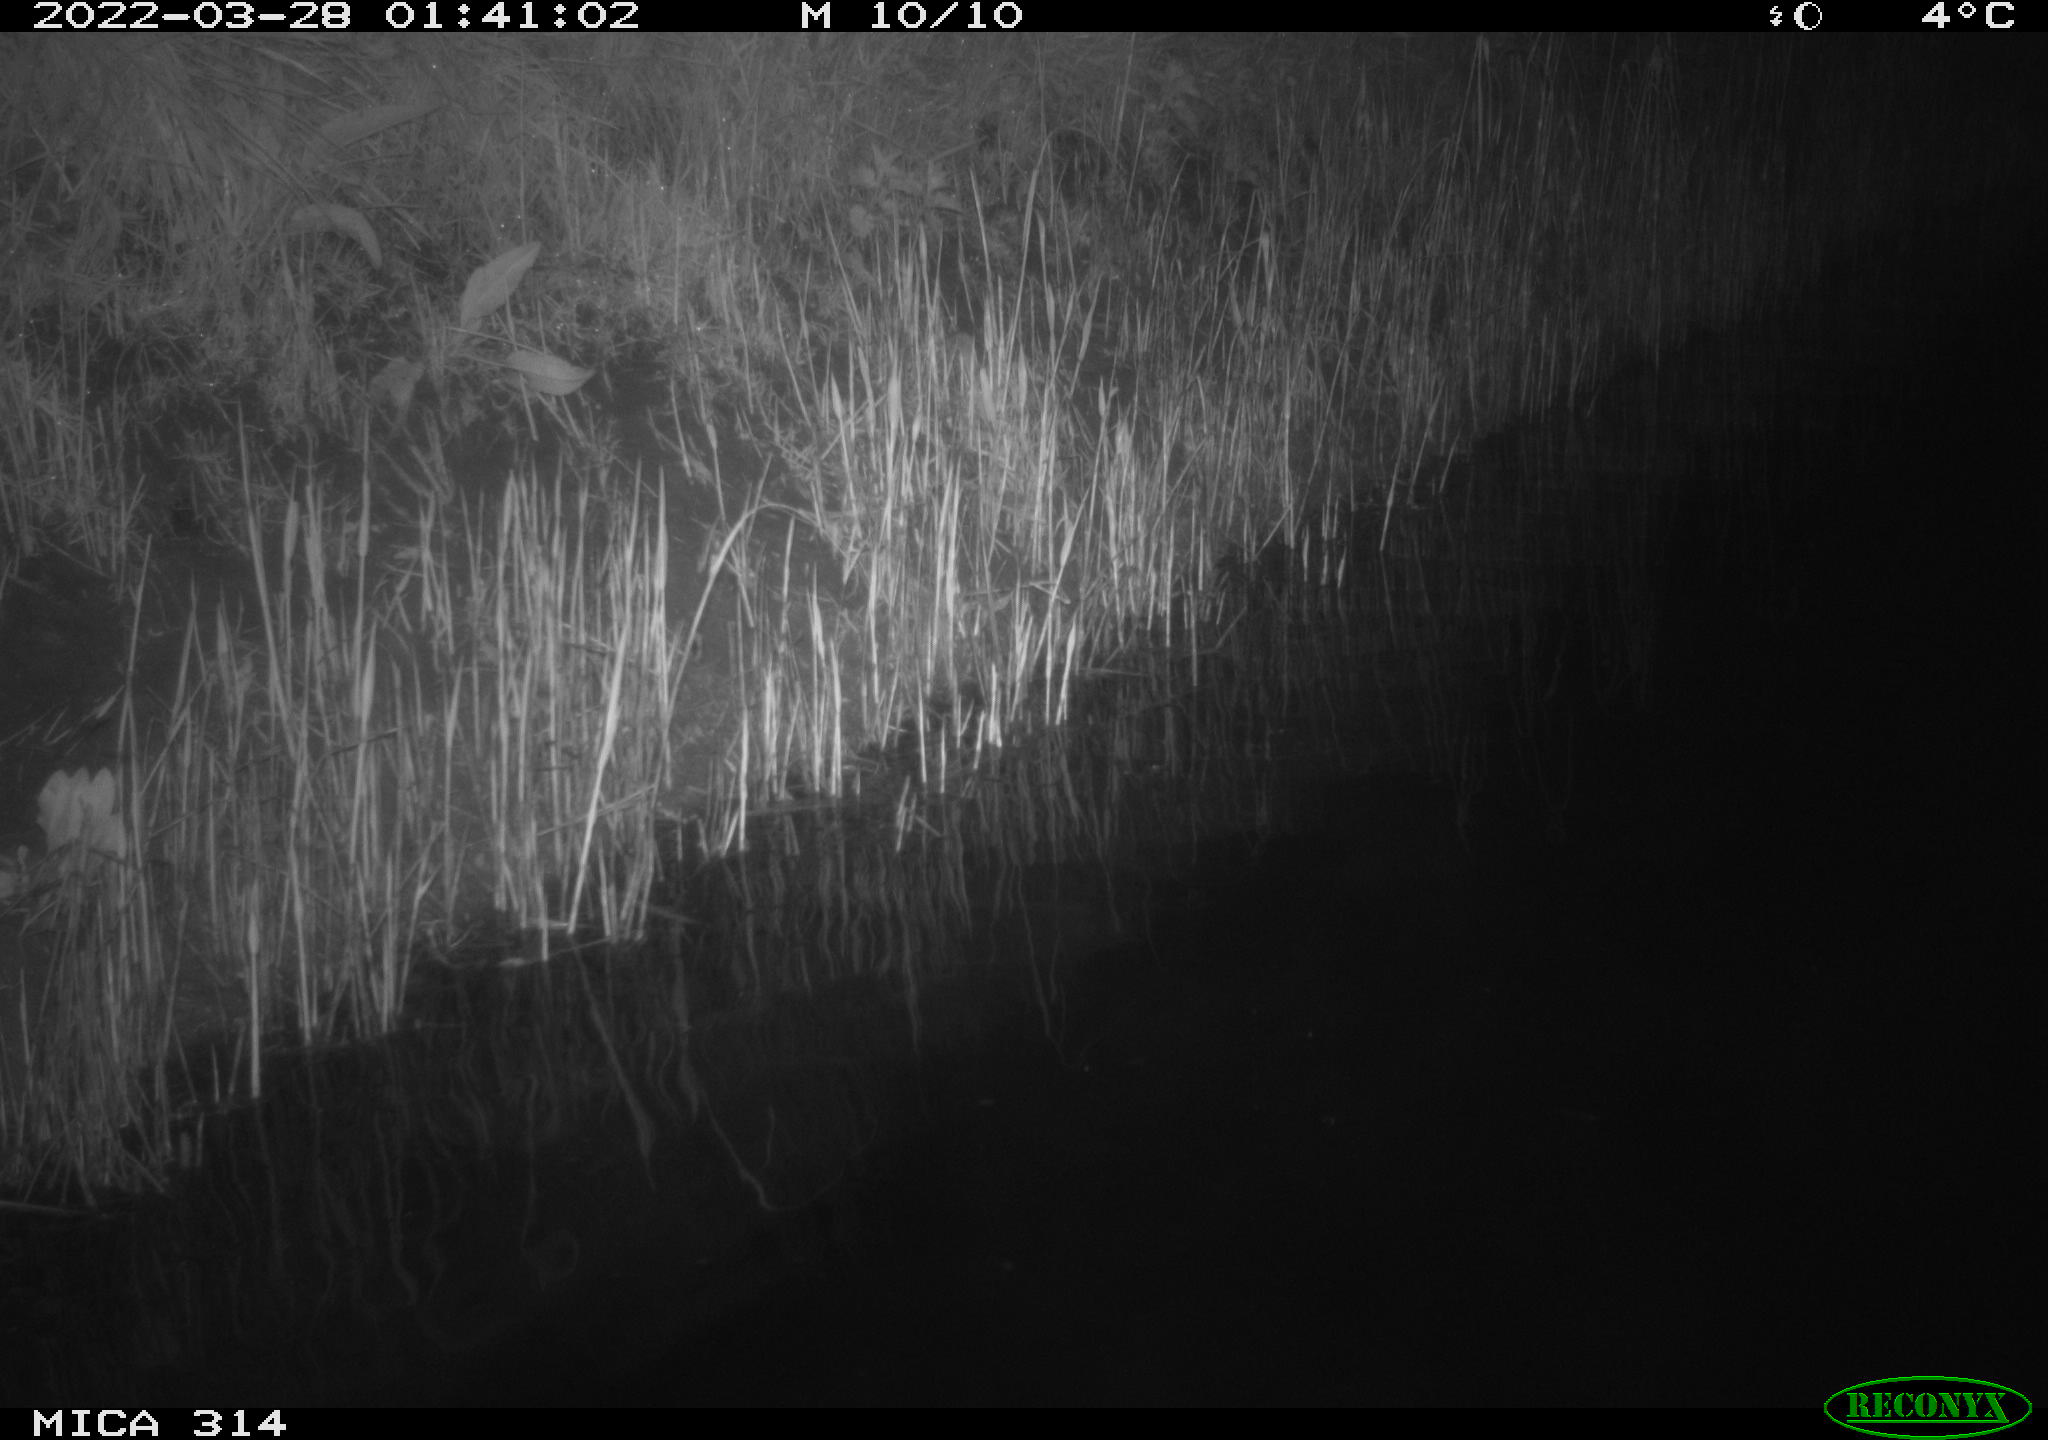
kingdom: Animalia
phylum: Chordata
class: Aves
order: Anseriformes
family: Anatidae
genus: Anas
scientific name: Anas platyrhynchos
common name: Mallard
